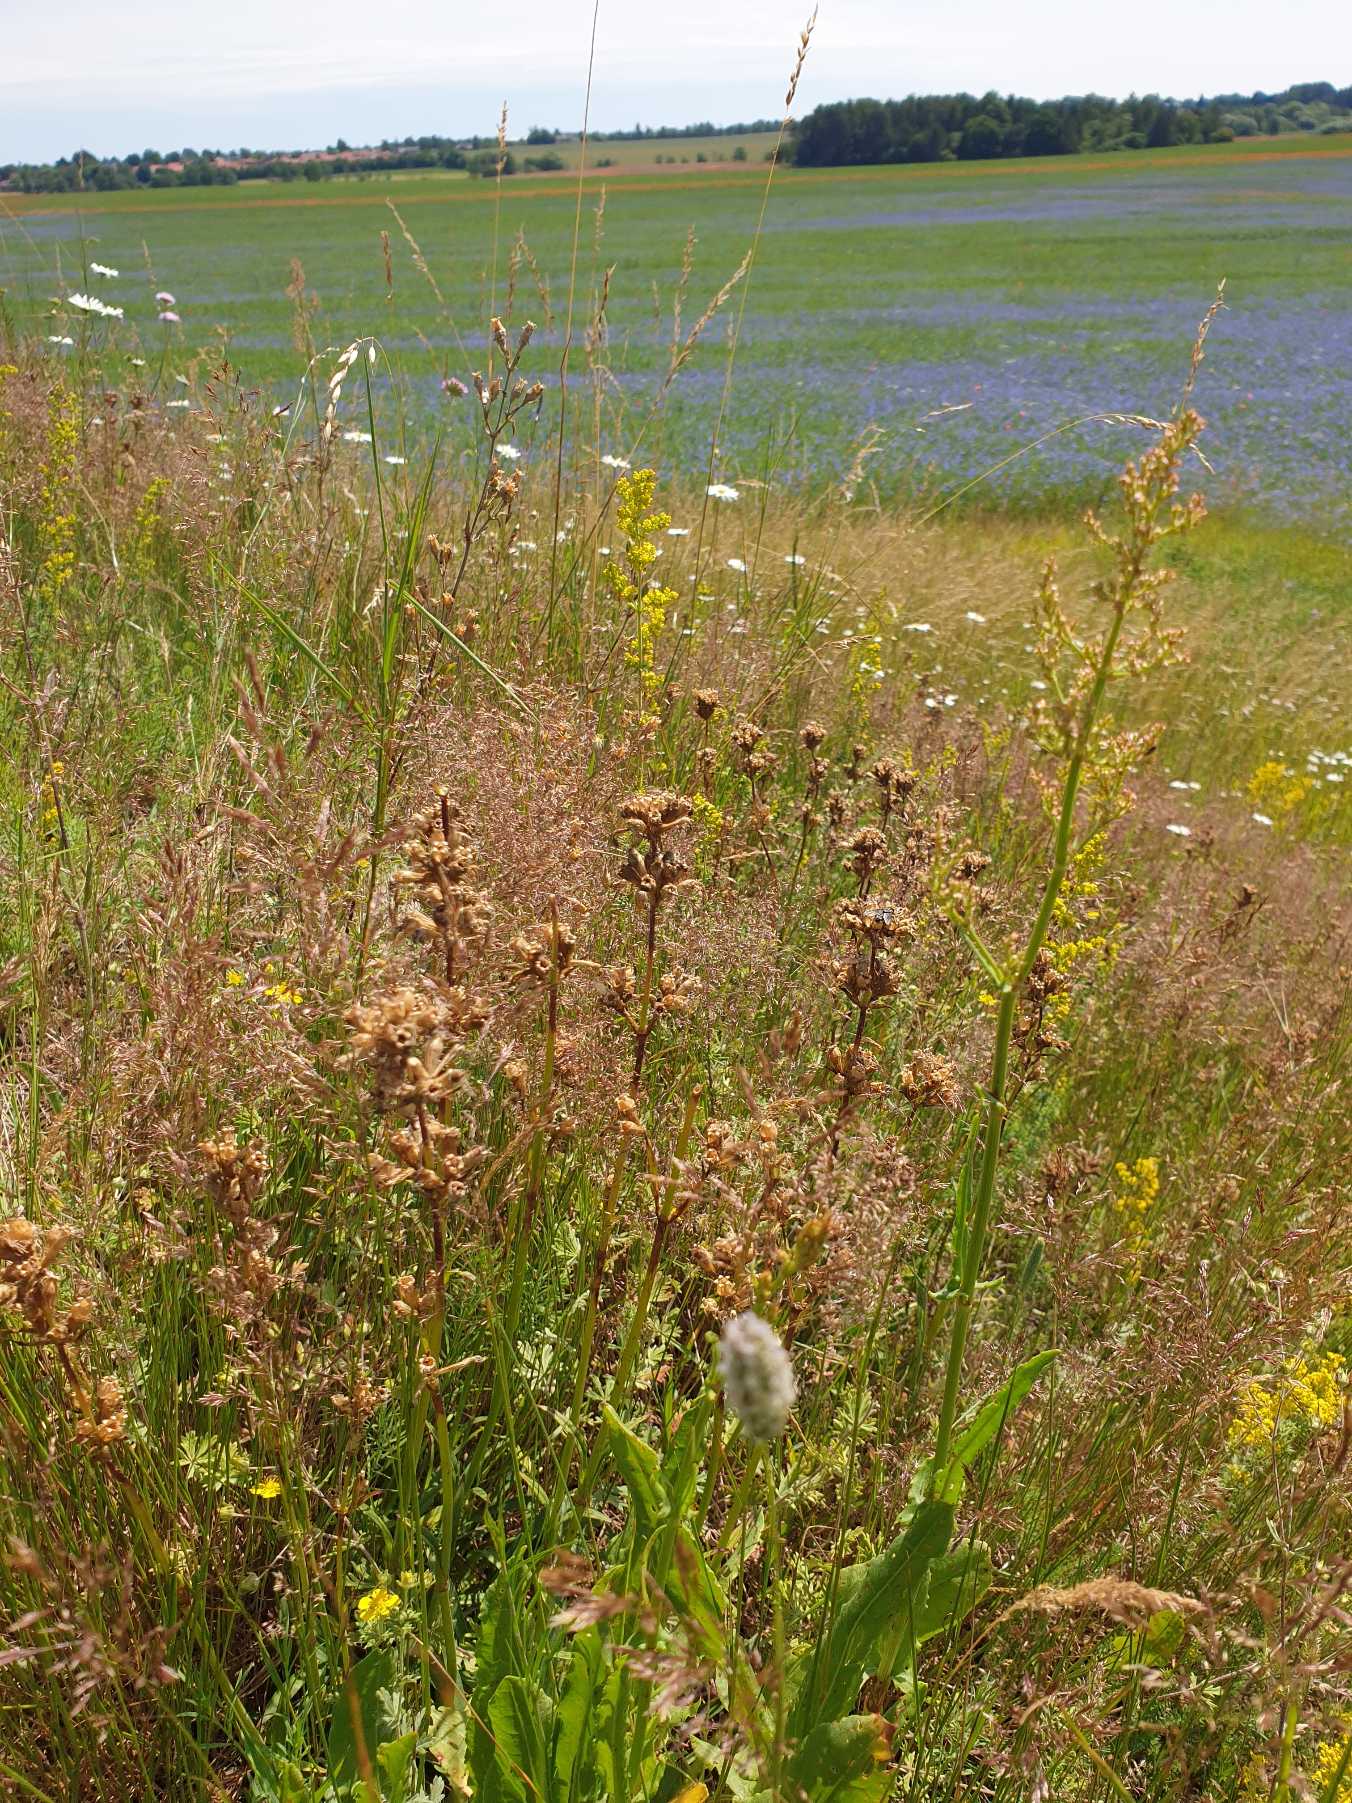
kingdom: Plantae
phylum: Tracheophyta
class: Magnoliopsida
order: Caryophyllales
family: Caryophyllaceae
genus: Viscaria
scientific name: Viscaria vulgaris
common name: Tjærenellike
